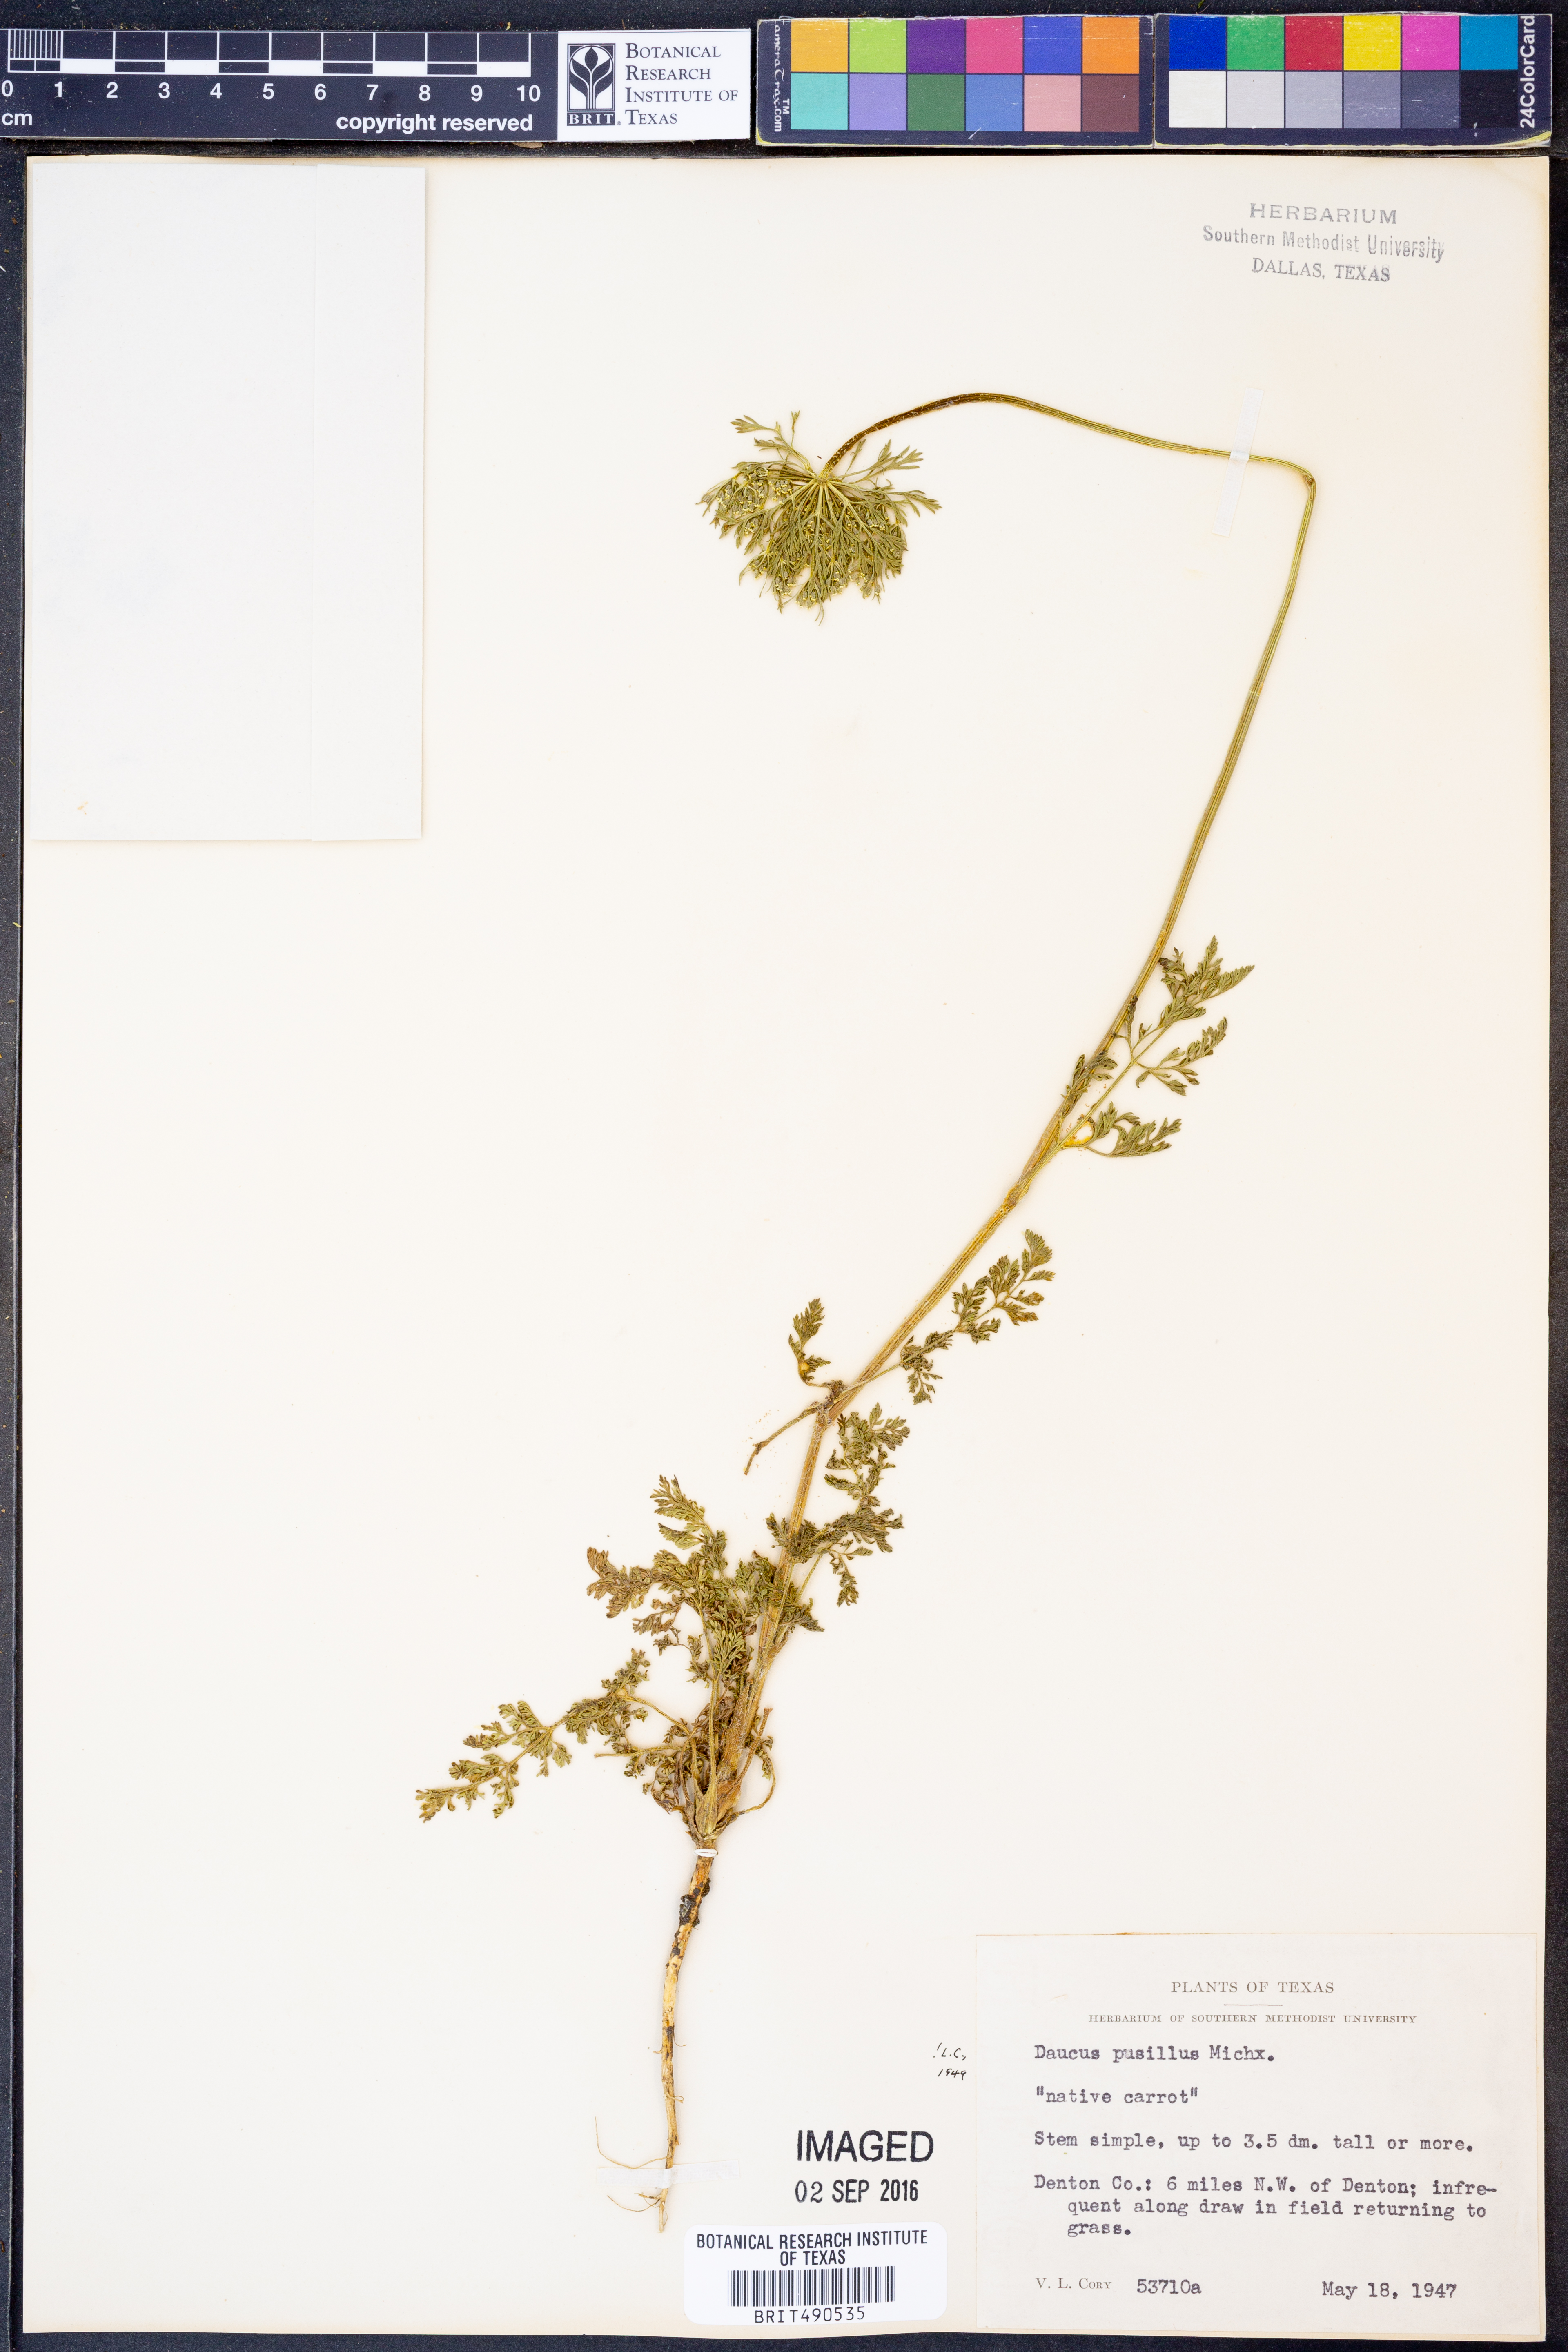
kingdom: Plantae
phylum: Tracheophyta
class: Magnoliopsida
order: Apiales
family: Apiaceae
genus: Daucus
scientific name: Daucus pusillus
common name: Southwest wild carrot
